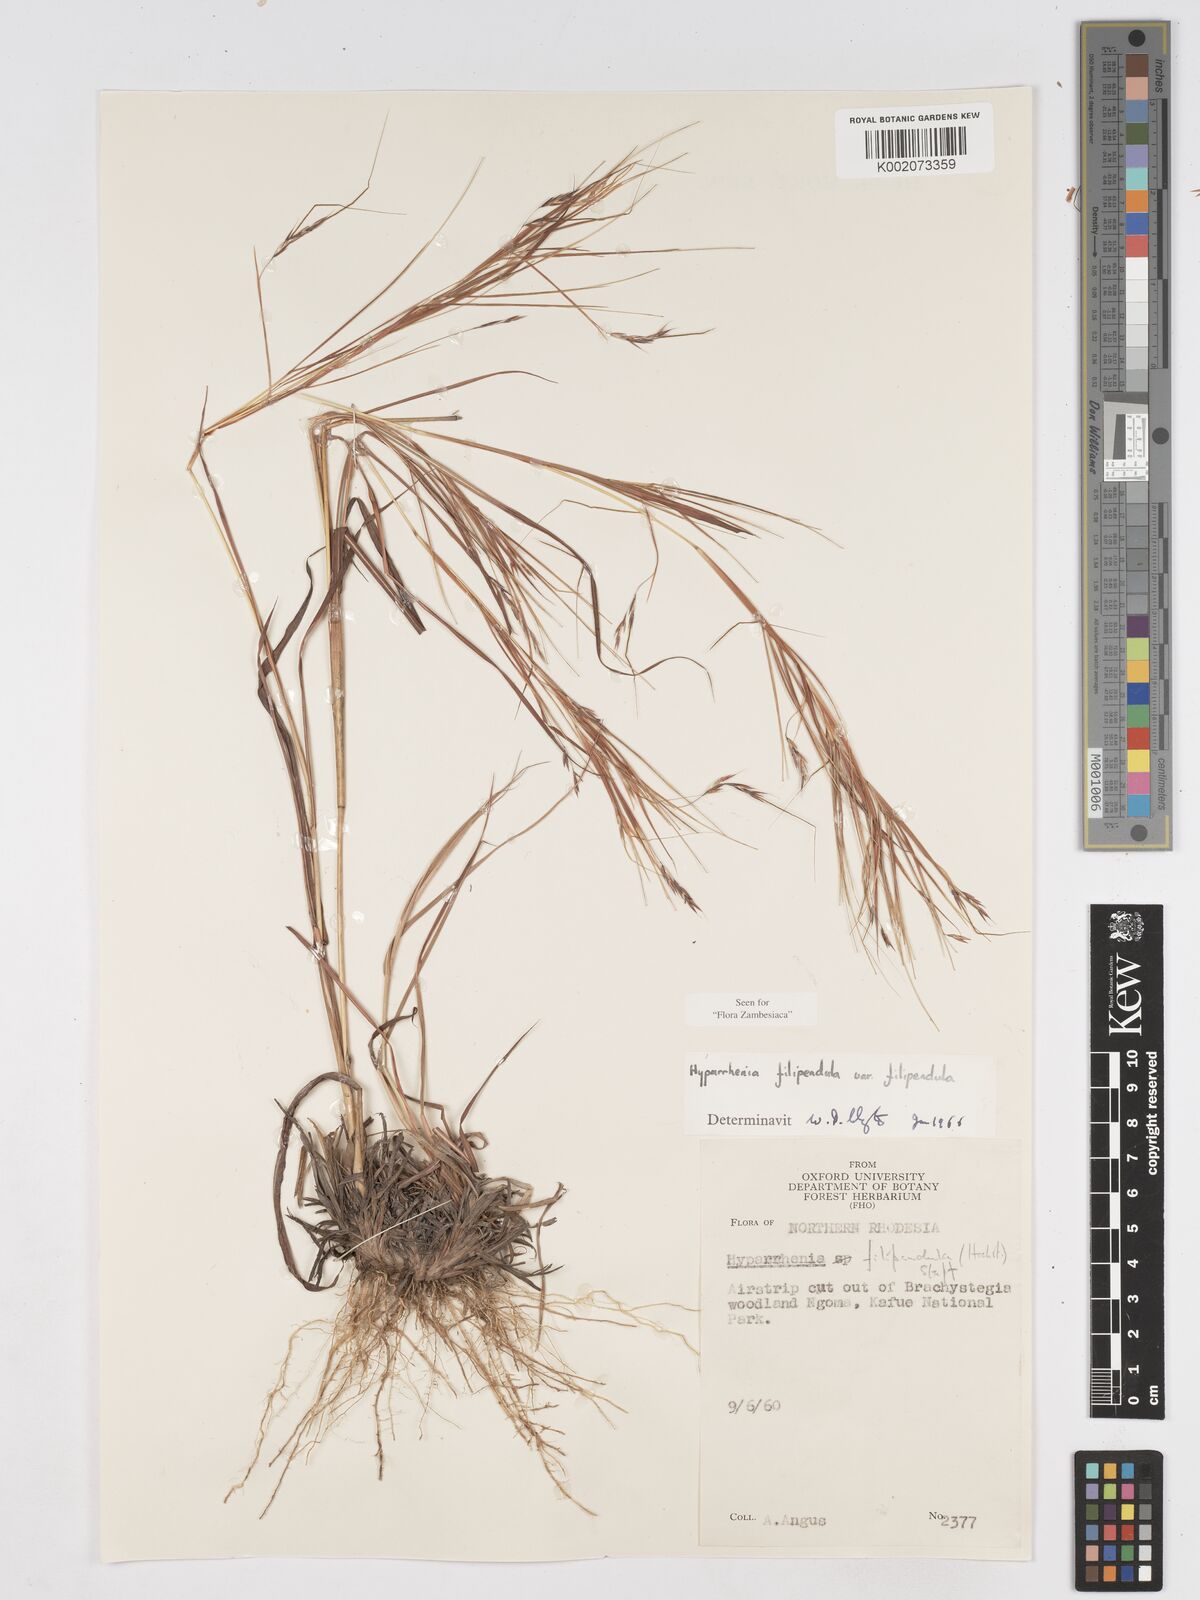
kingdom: Plantae
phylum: Tracheophyta
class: Liliopsida
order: Poales
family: Poaceae
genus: Hyparrhenia
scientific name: Hyparrhenia filipendula
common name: Tambookie grass
